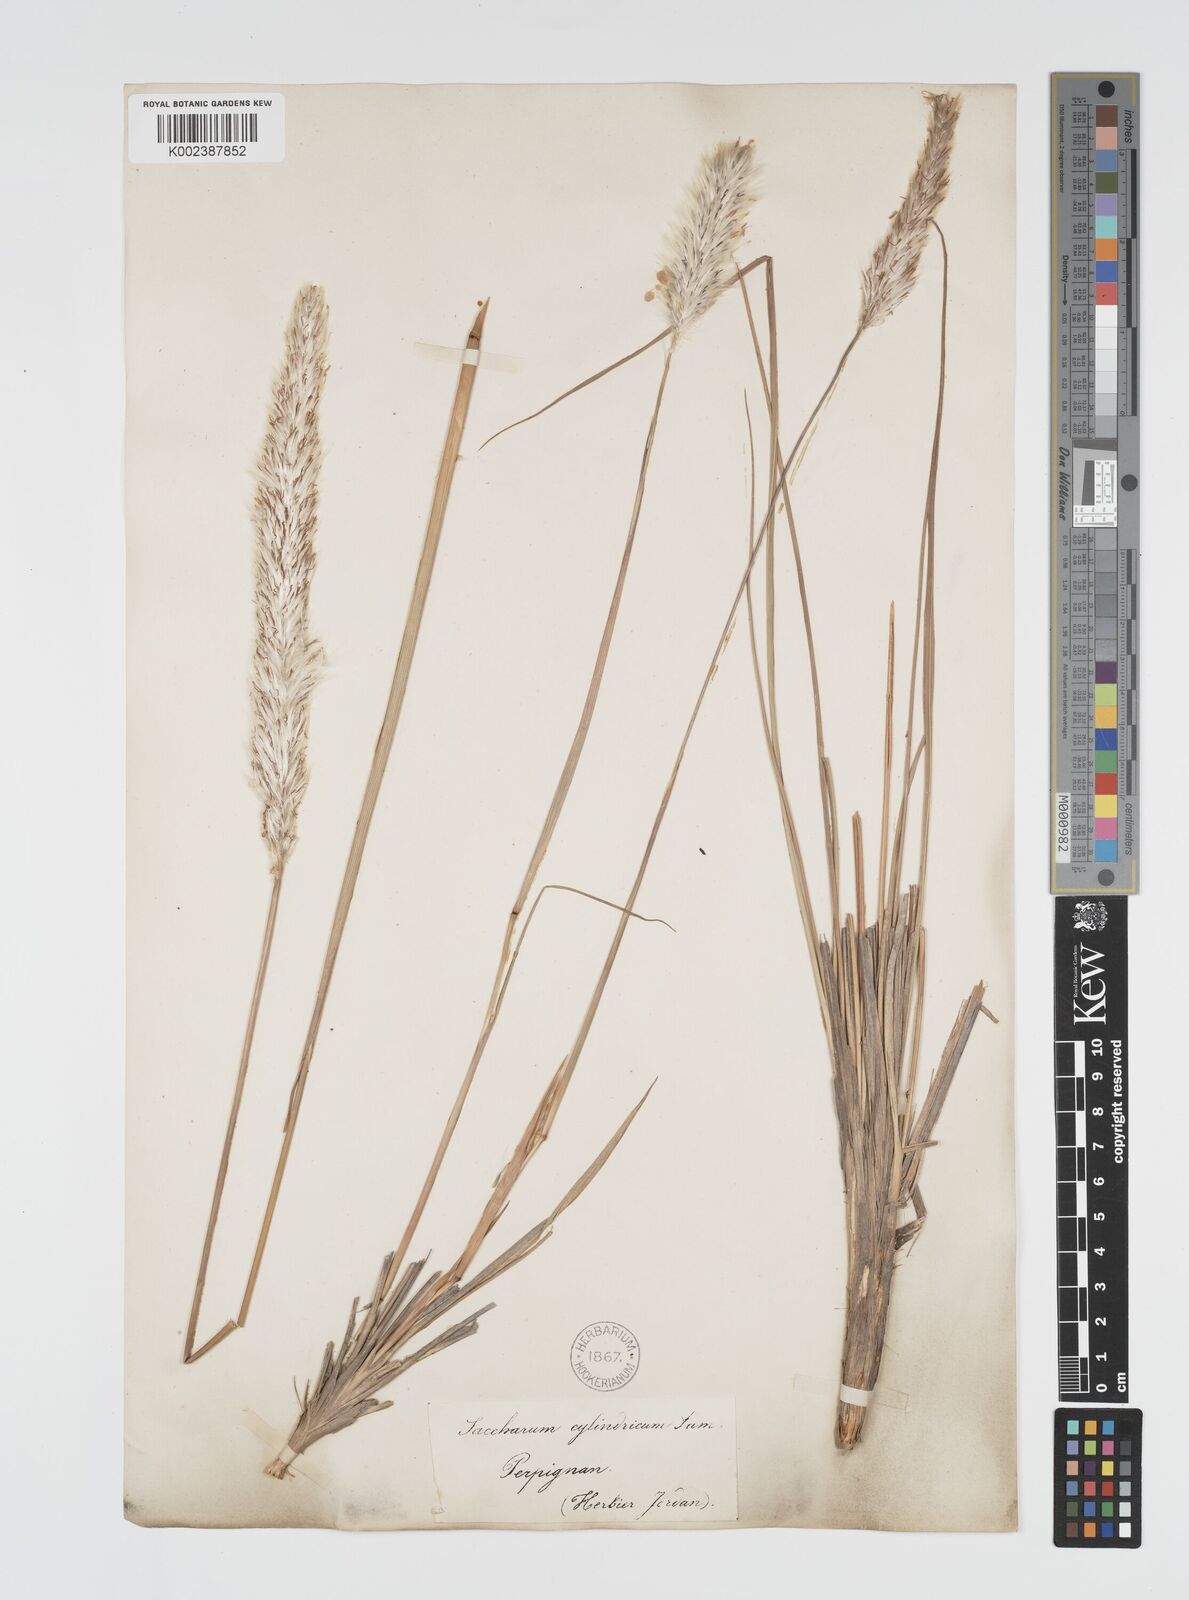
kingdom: Plantae
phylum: Tracheophyta
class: Liliopsida
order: Poales
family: Poaceae
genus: Imperata
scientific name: Imperata cylindrica
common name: Cogongrass
